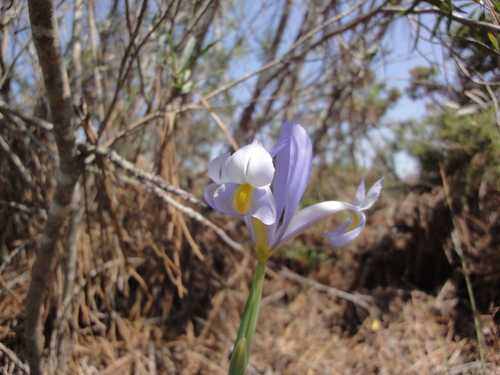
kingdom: Plantae
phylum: Tracheophyta
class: Liliopsida
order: Asparagales
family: Iridaceae
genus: Iris
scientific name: Iris xiphium
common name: Spanish iris
